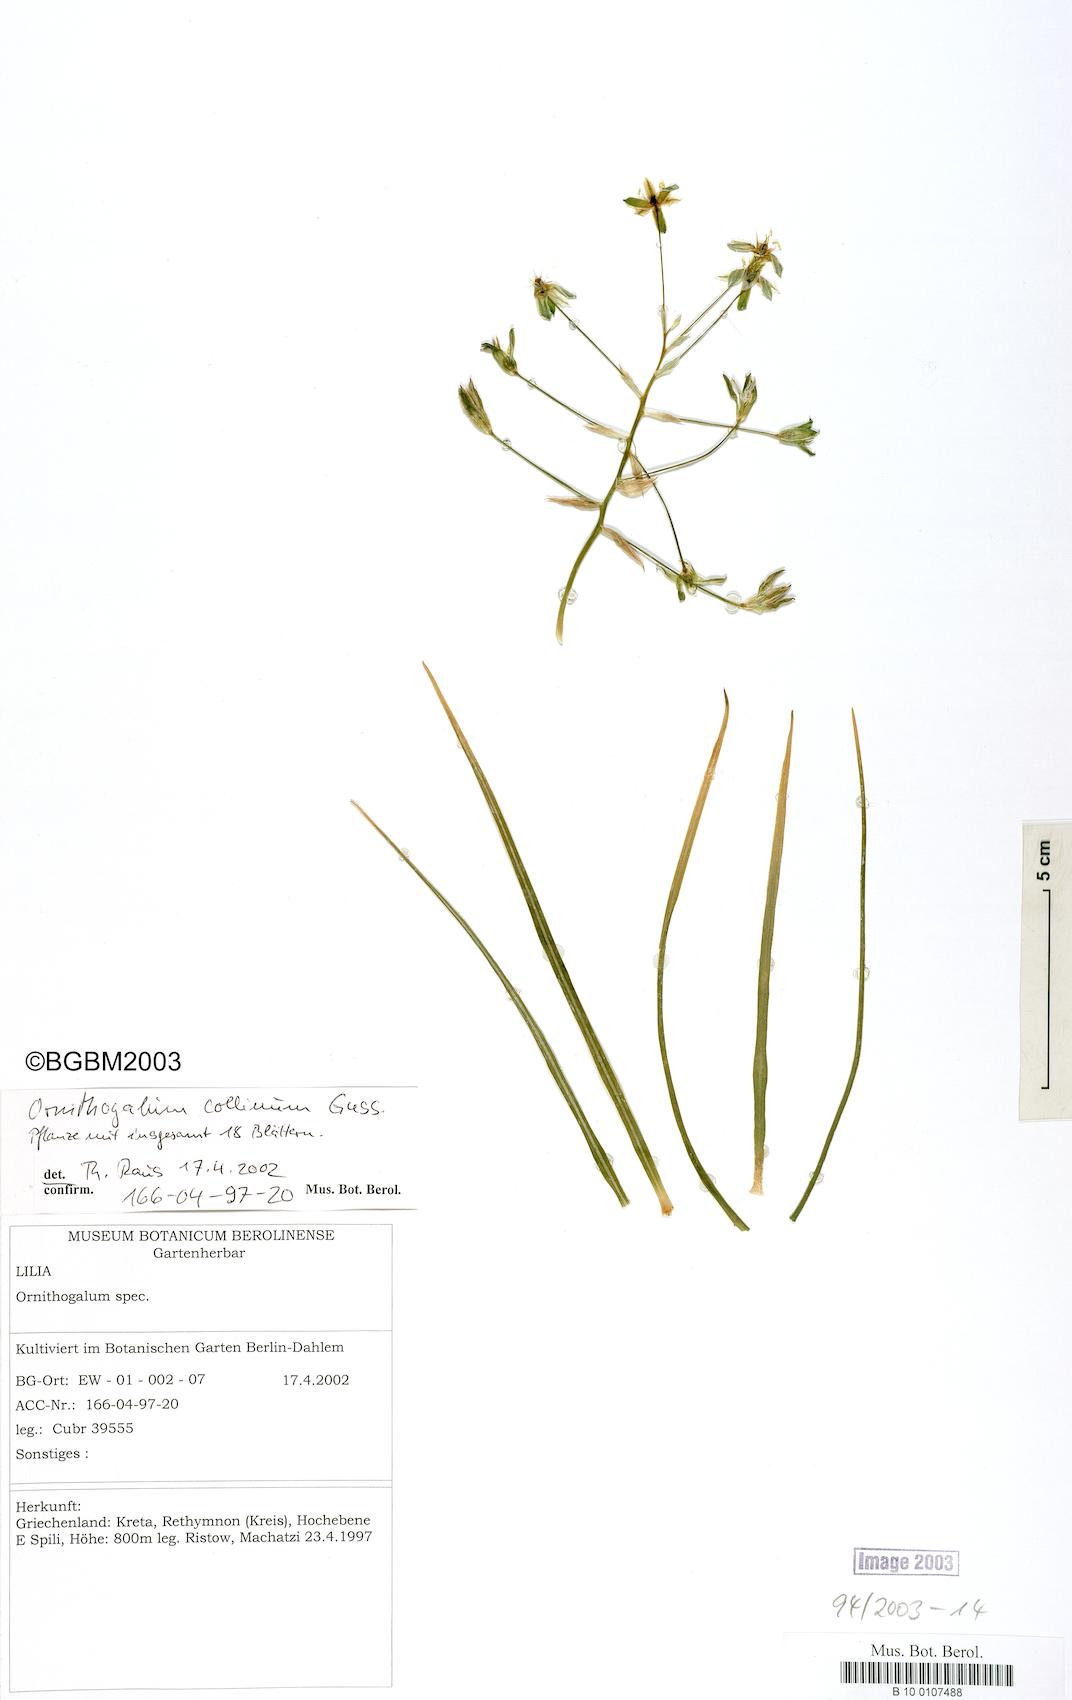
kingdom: Plantae
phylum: Tracheophyta
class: Liliopsida
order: Asparagales
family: Asparagaceae
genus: Ornithogalum
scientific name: Ornithogalum collinum
